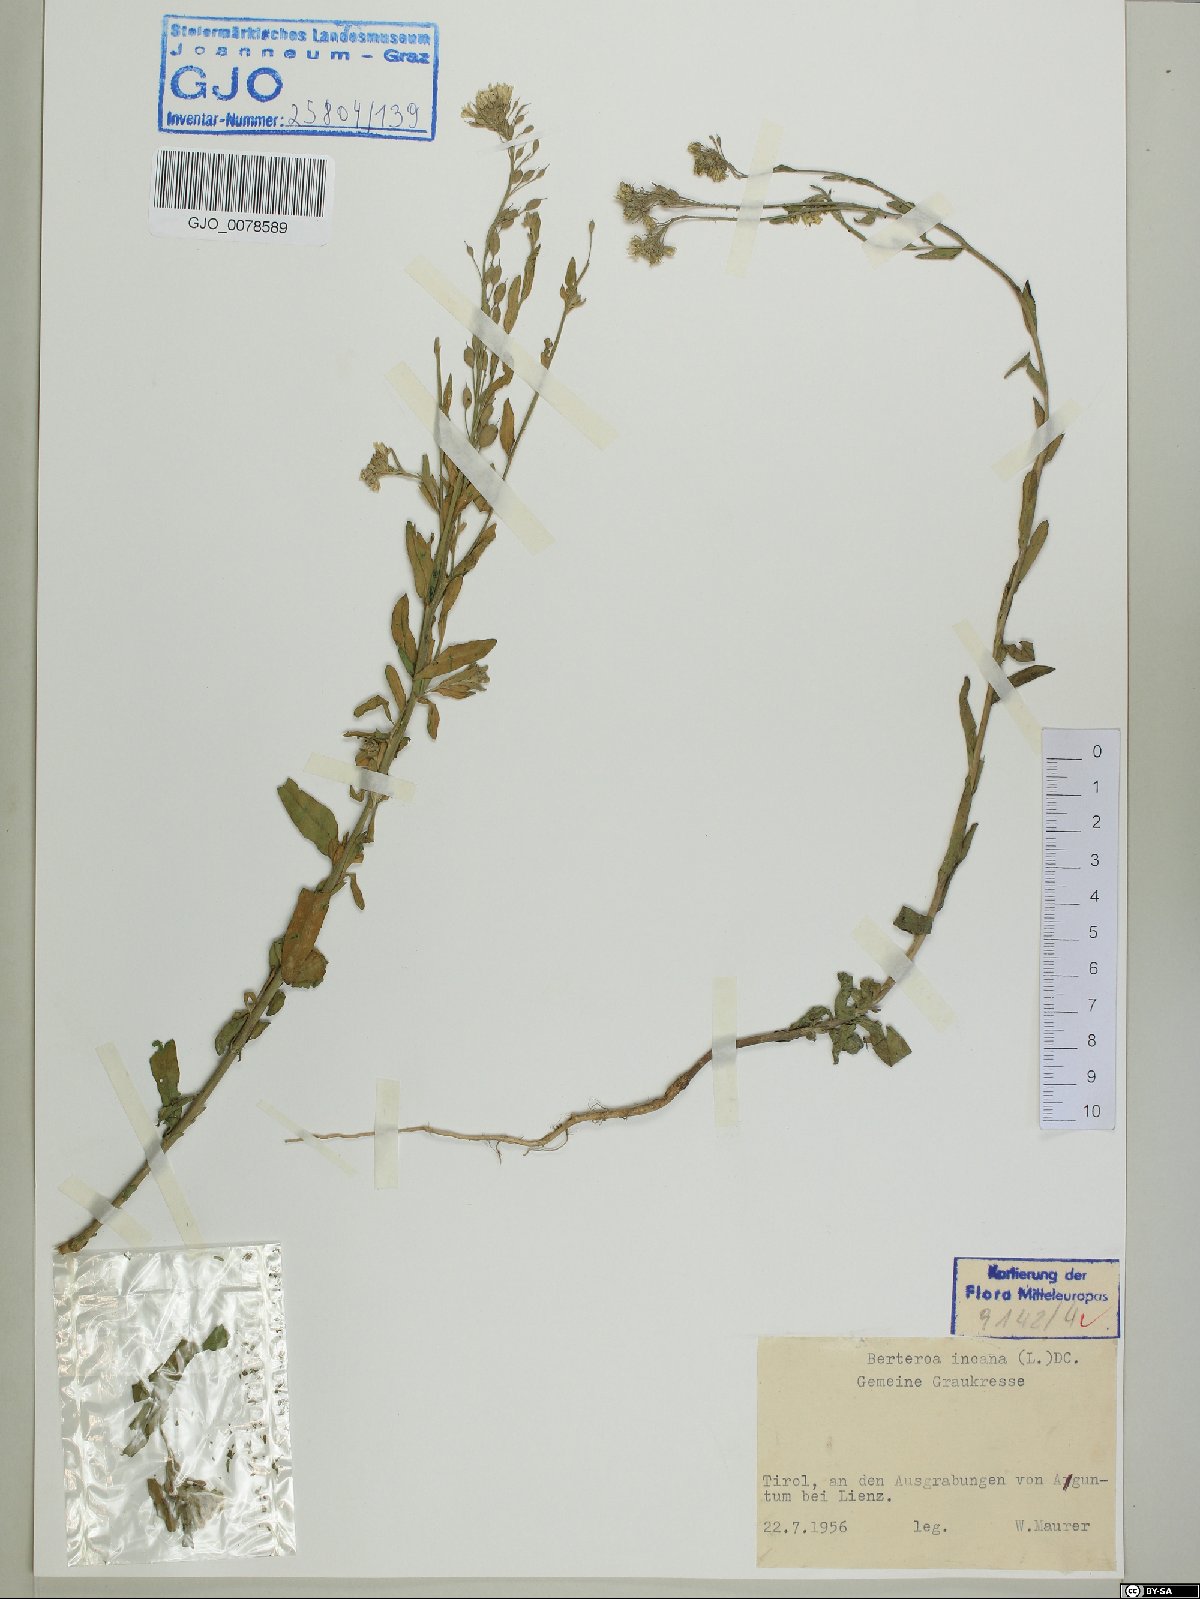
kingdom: Plantae
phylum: Tracheophyta
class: Magnoliopsida
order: Brassicales
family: Brassicaceae
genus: Berteroa
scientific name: Berteroa incana
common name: Hoary alison
